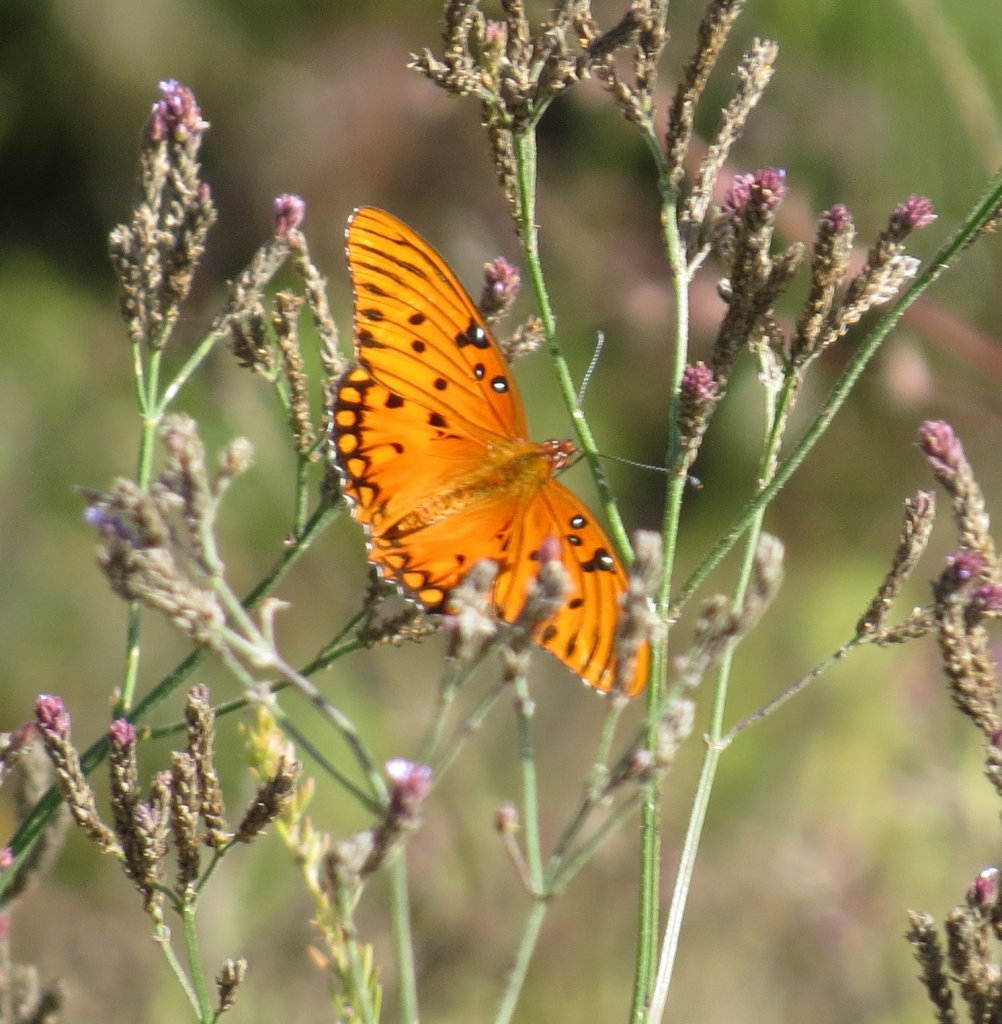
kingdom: Animalia
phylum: Arthropoda
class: Insecta
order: Lepidoptera
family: Nymphalidae
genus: Dione
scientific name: Dione vanillae
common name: Gulf Fritillary
